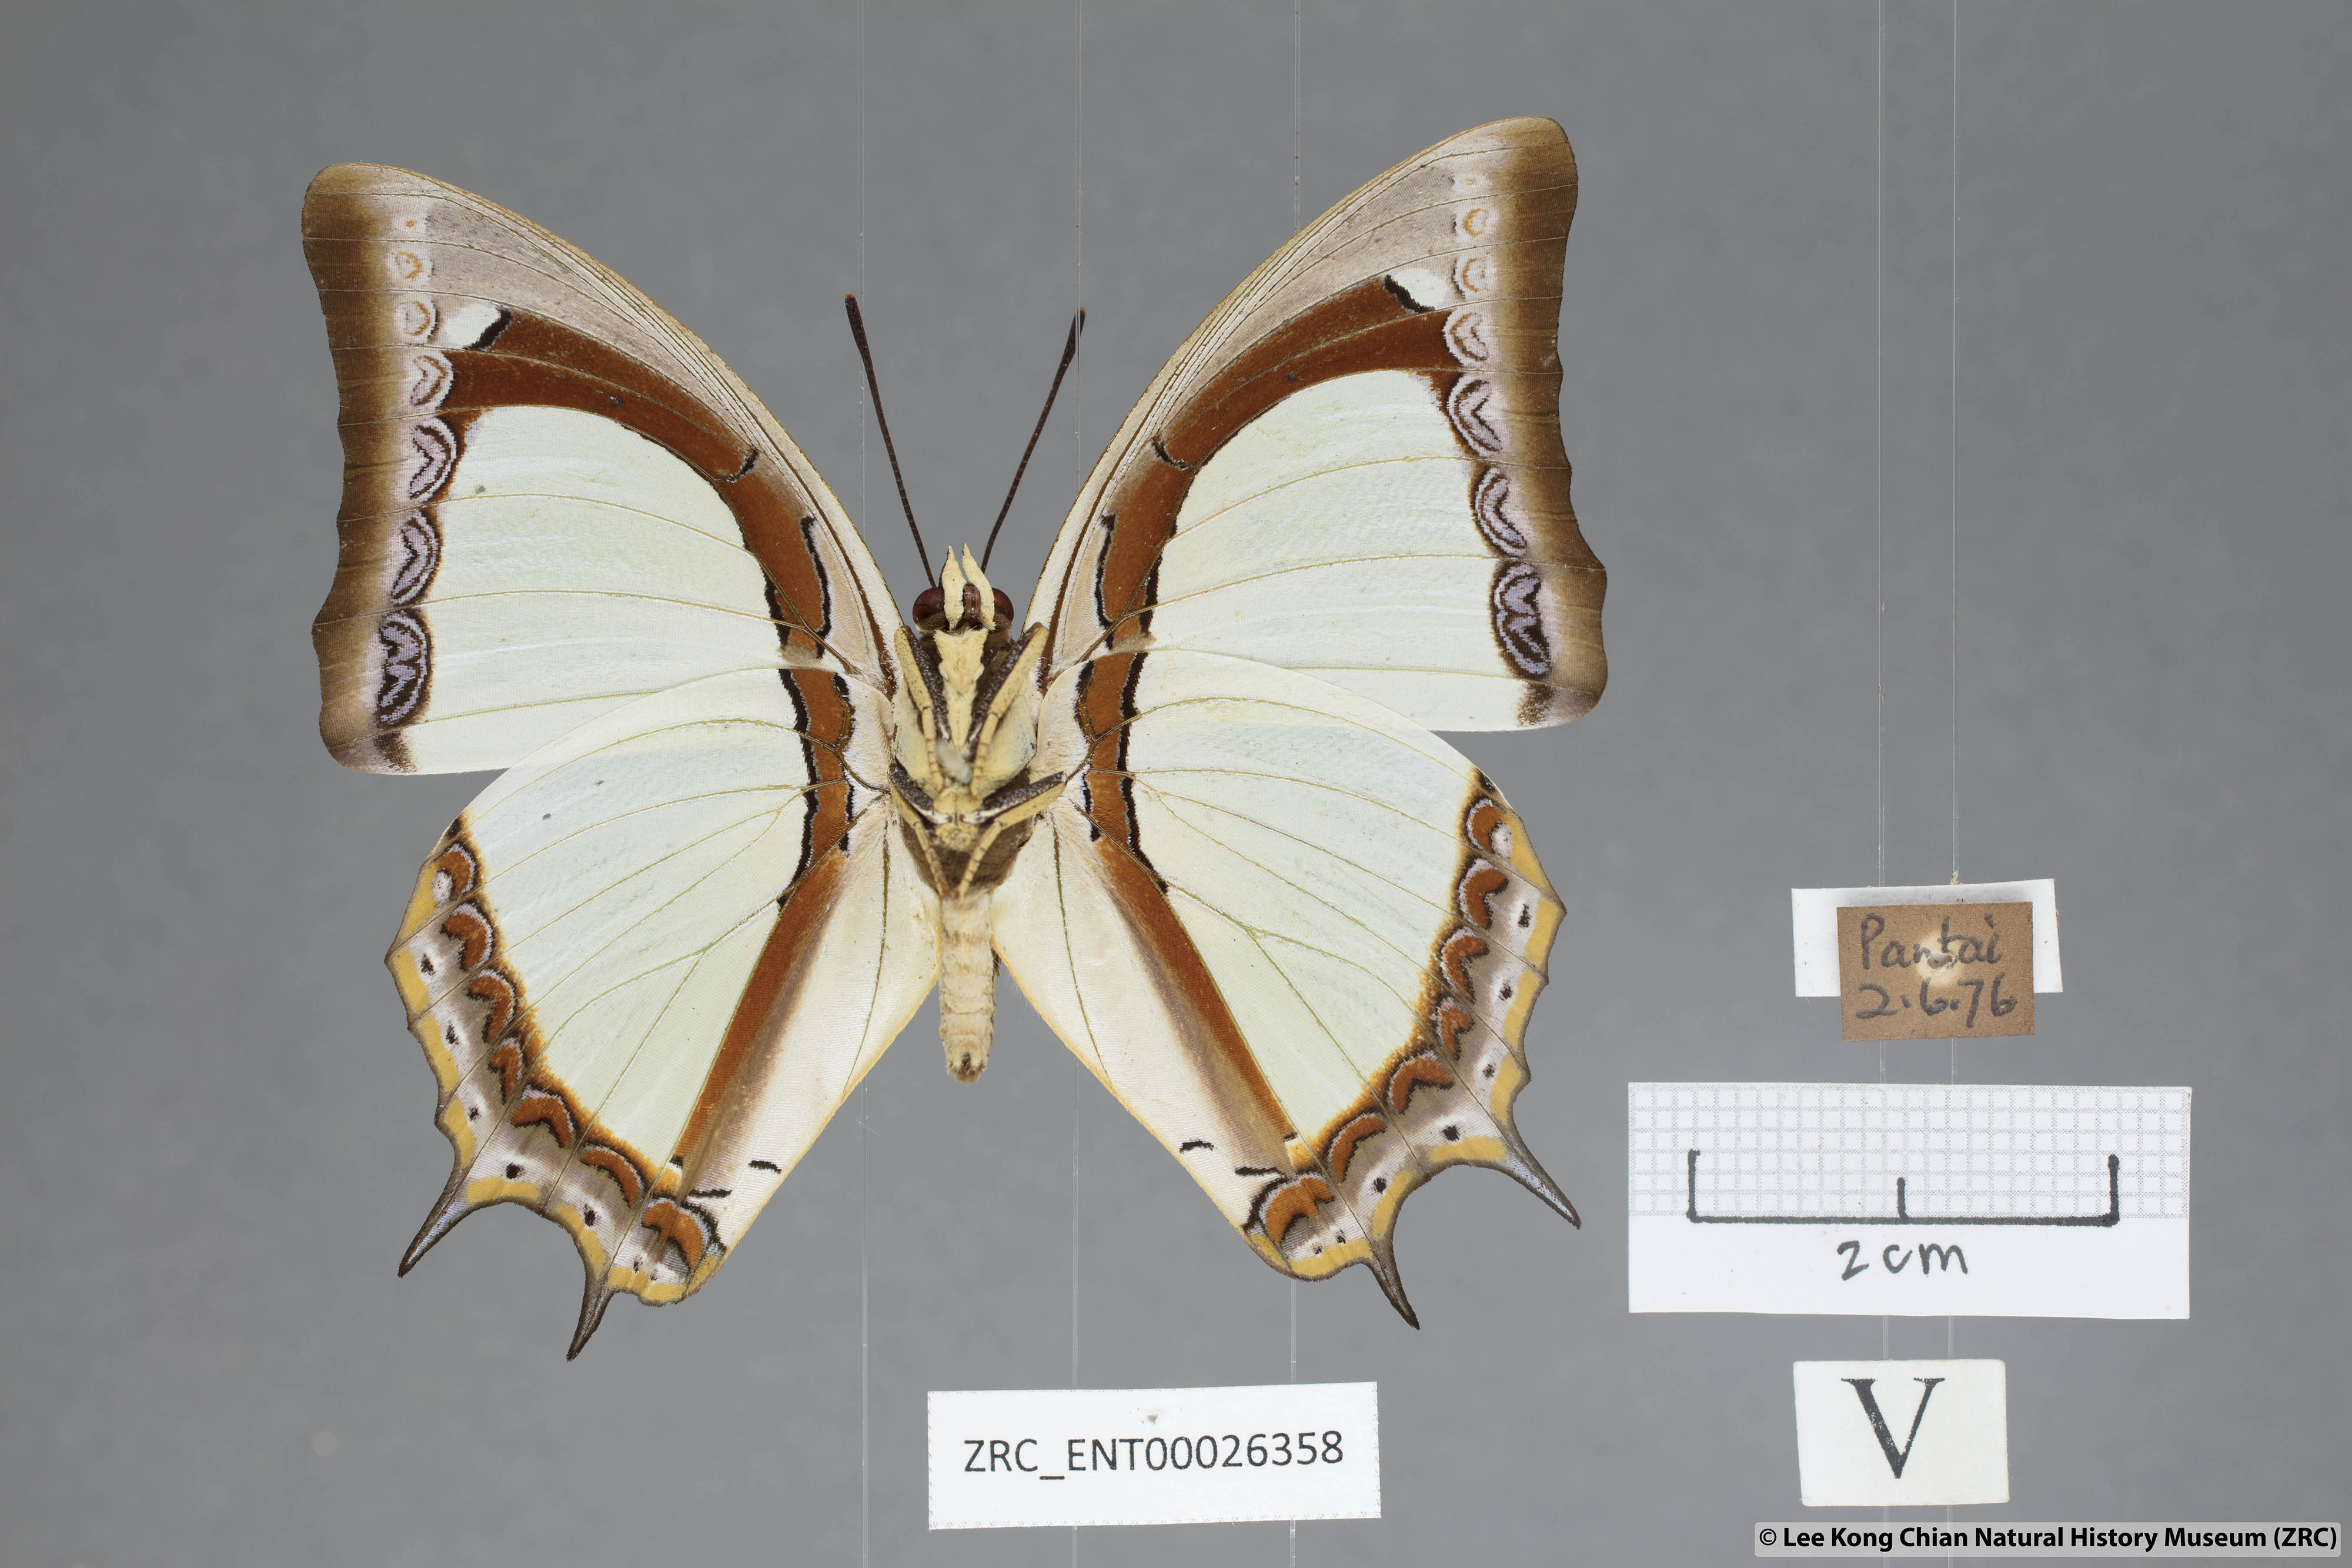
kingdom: Animalia
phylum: Arthropoda
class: Insecta
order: Lepidoptera
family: Nymphalidae
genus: Polyura
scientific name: Polyura jalysus
